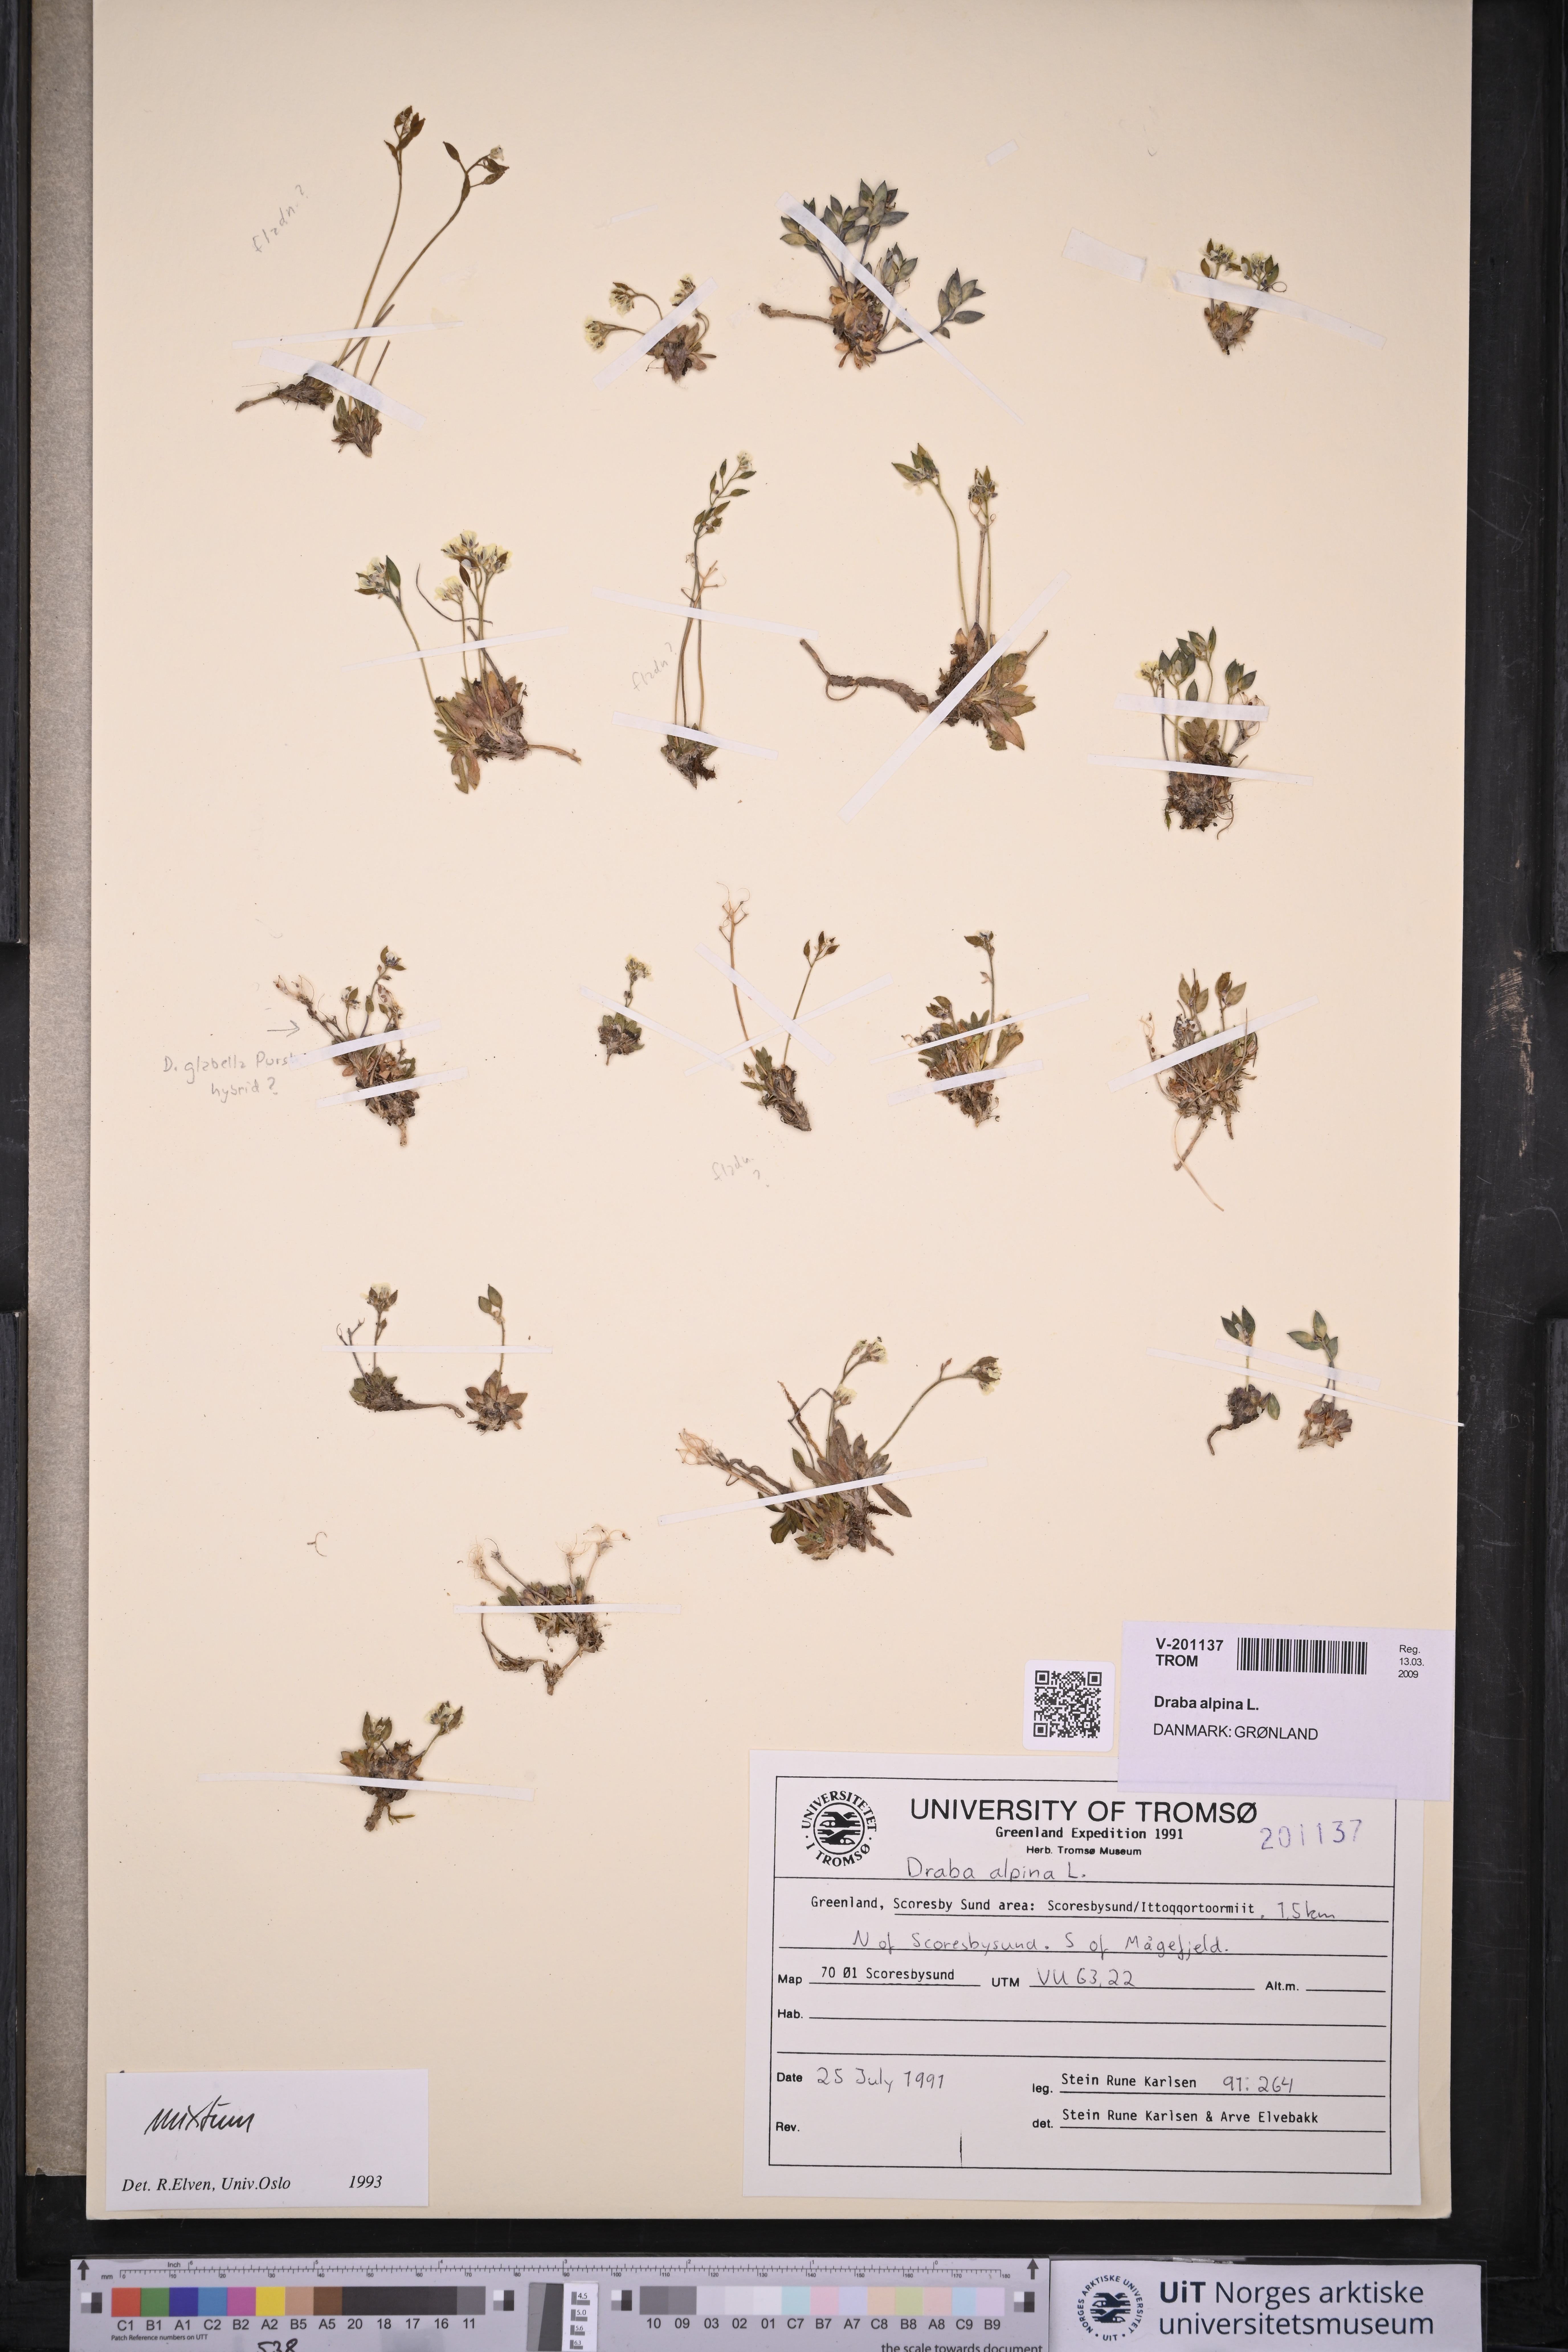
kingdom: Plantae
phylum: Tracheophyta
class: Magnoliopsida
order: Brassicales
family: Brassicaceae
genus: Draba
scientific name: Draba alpina
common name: Alpine draba
